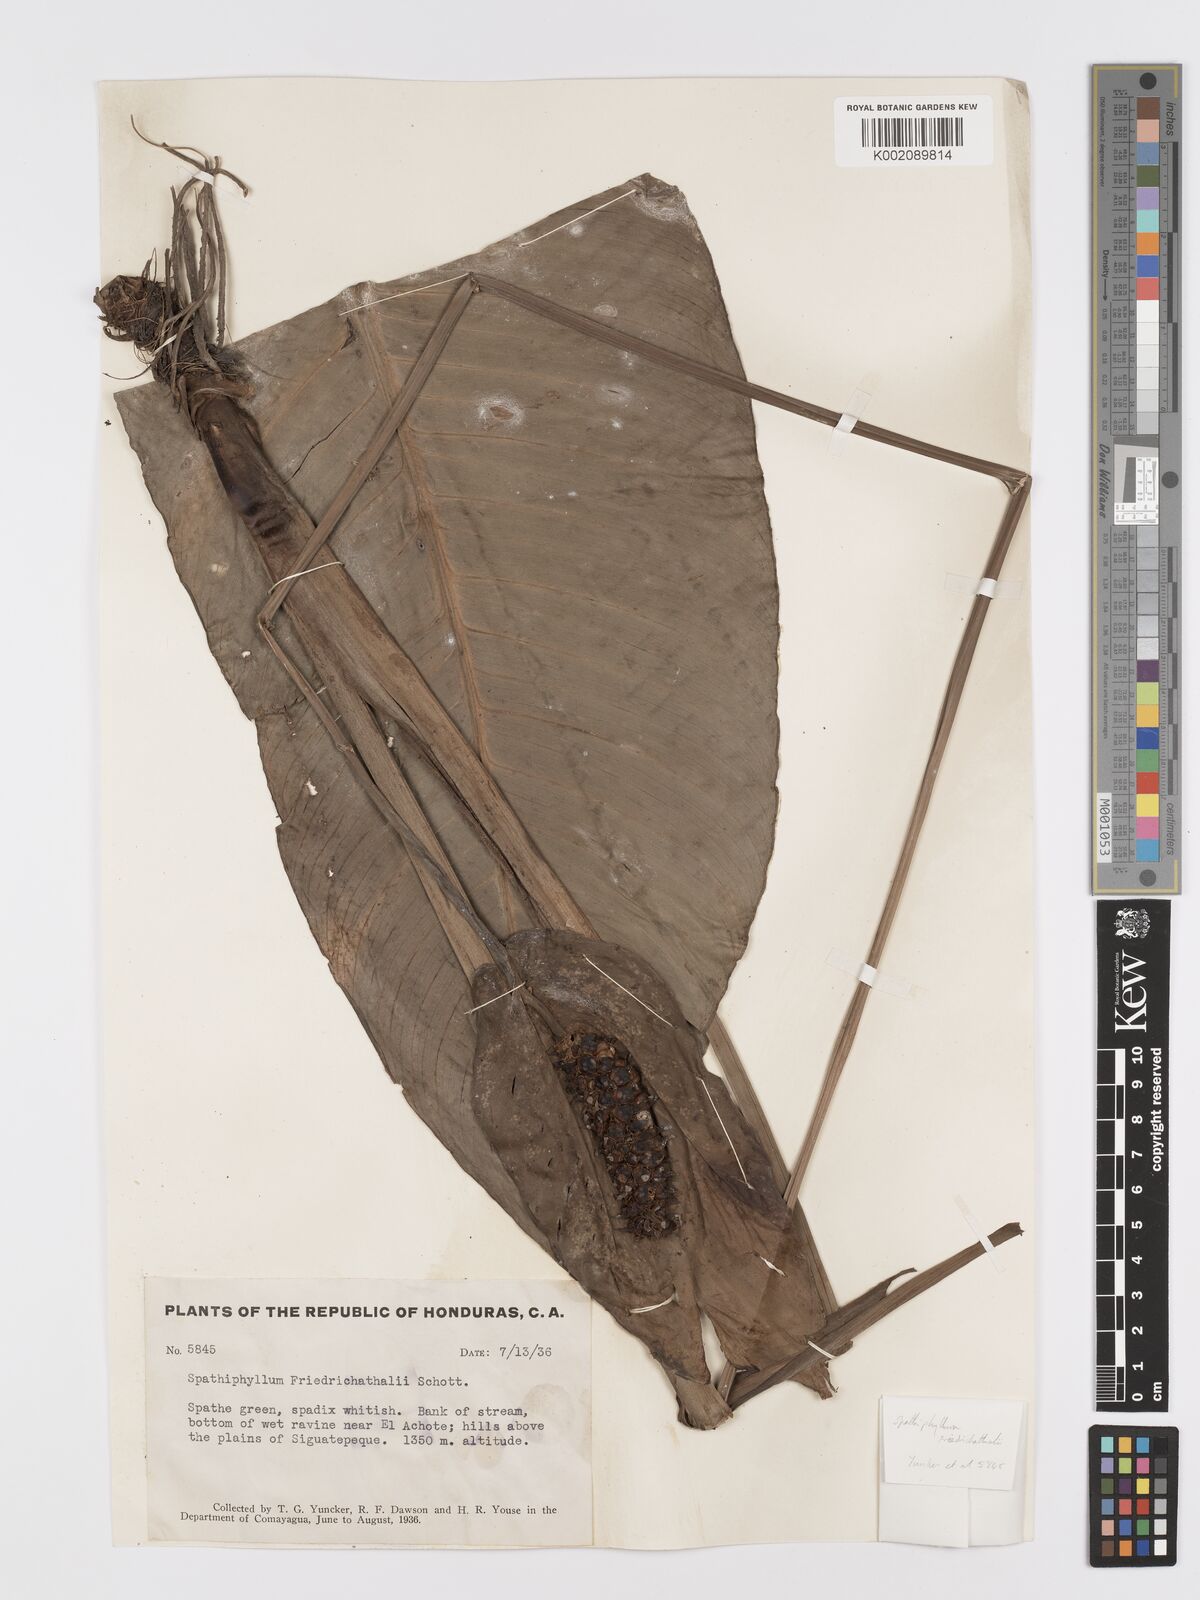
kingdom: Plantae
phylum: Tracheophyta
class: Liliopsida
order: Alismatales
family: Araceae
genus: Spathiphyllum
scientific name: Spathiphyllum friedrichsthalii
